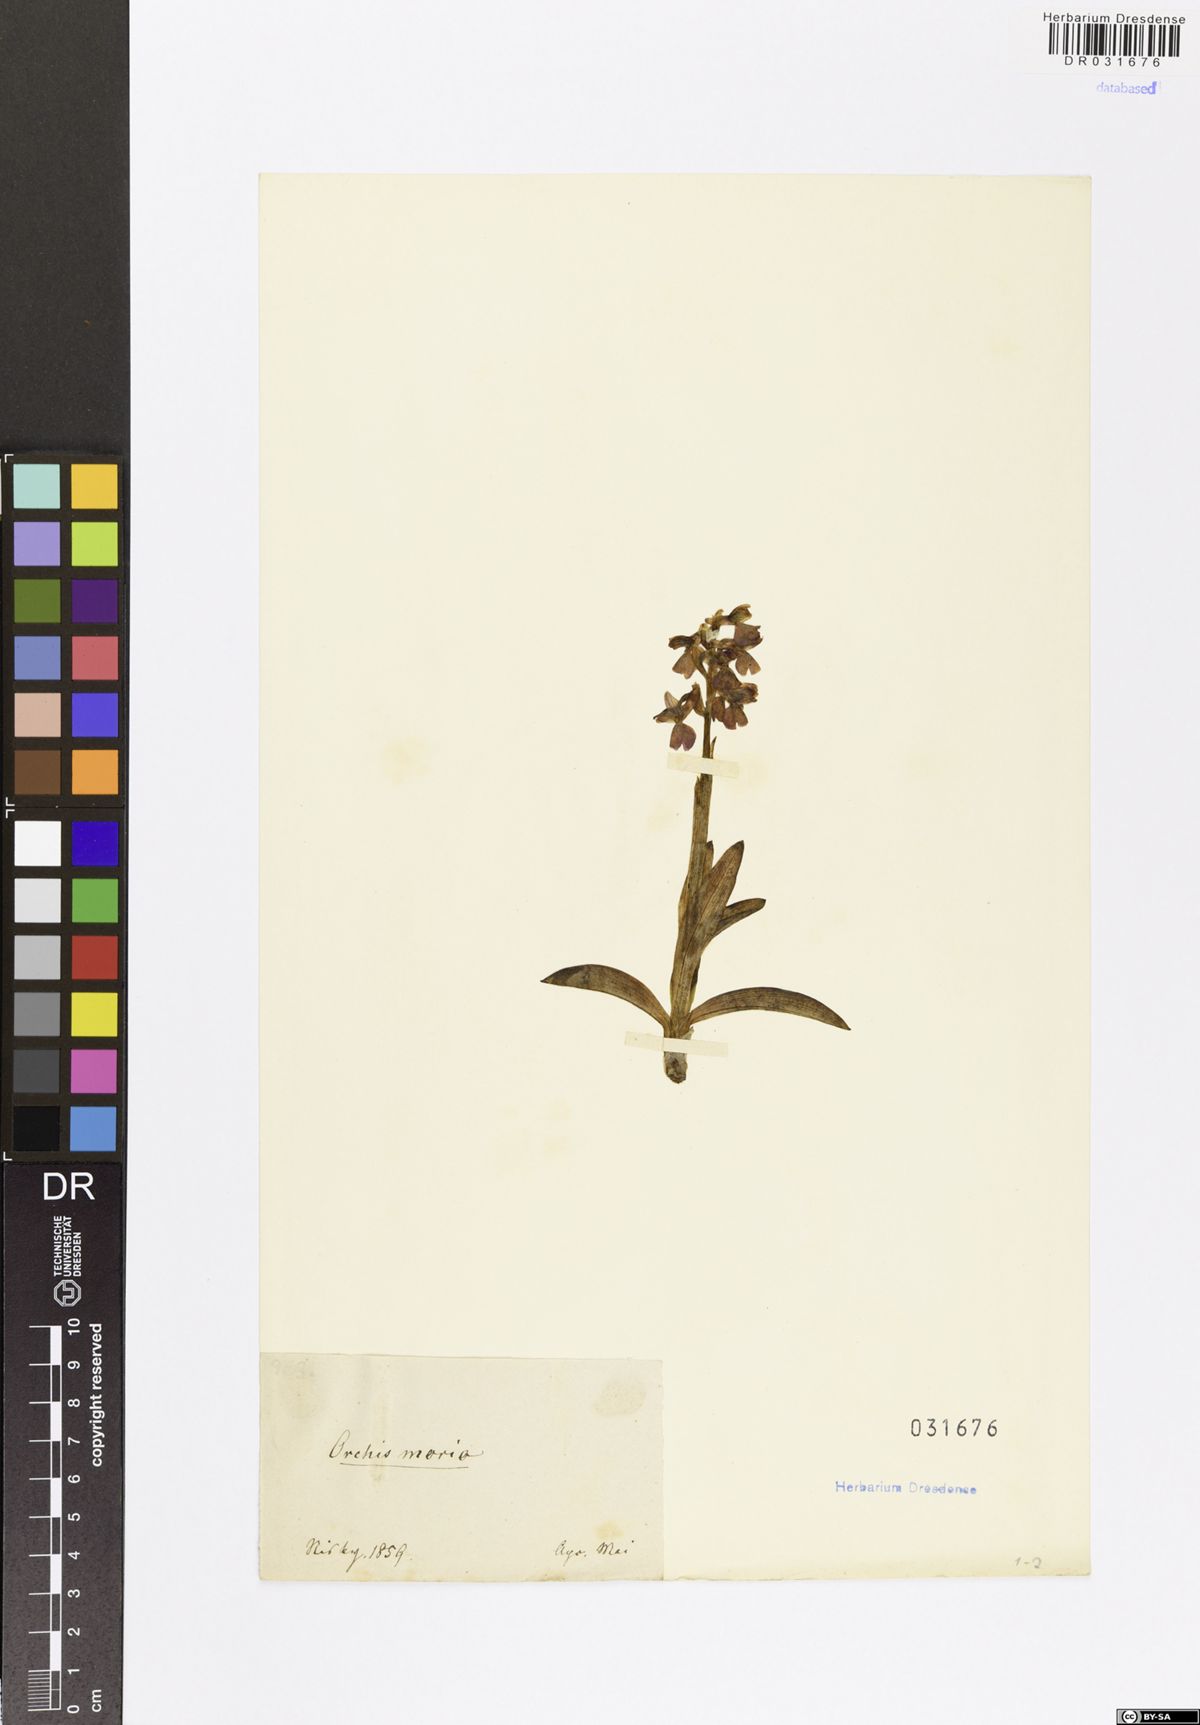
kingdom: Plantae
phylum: Tracheophyta
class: Liliopsida
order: Asparagales
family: Orchidaceae
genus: Anacamptis
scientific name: Anacamptis morio
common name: Green-winged orchid
